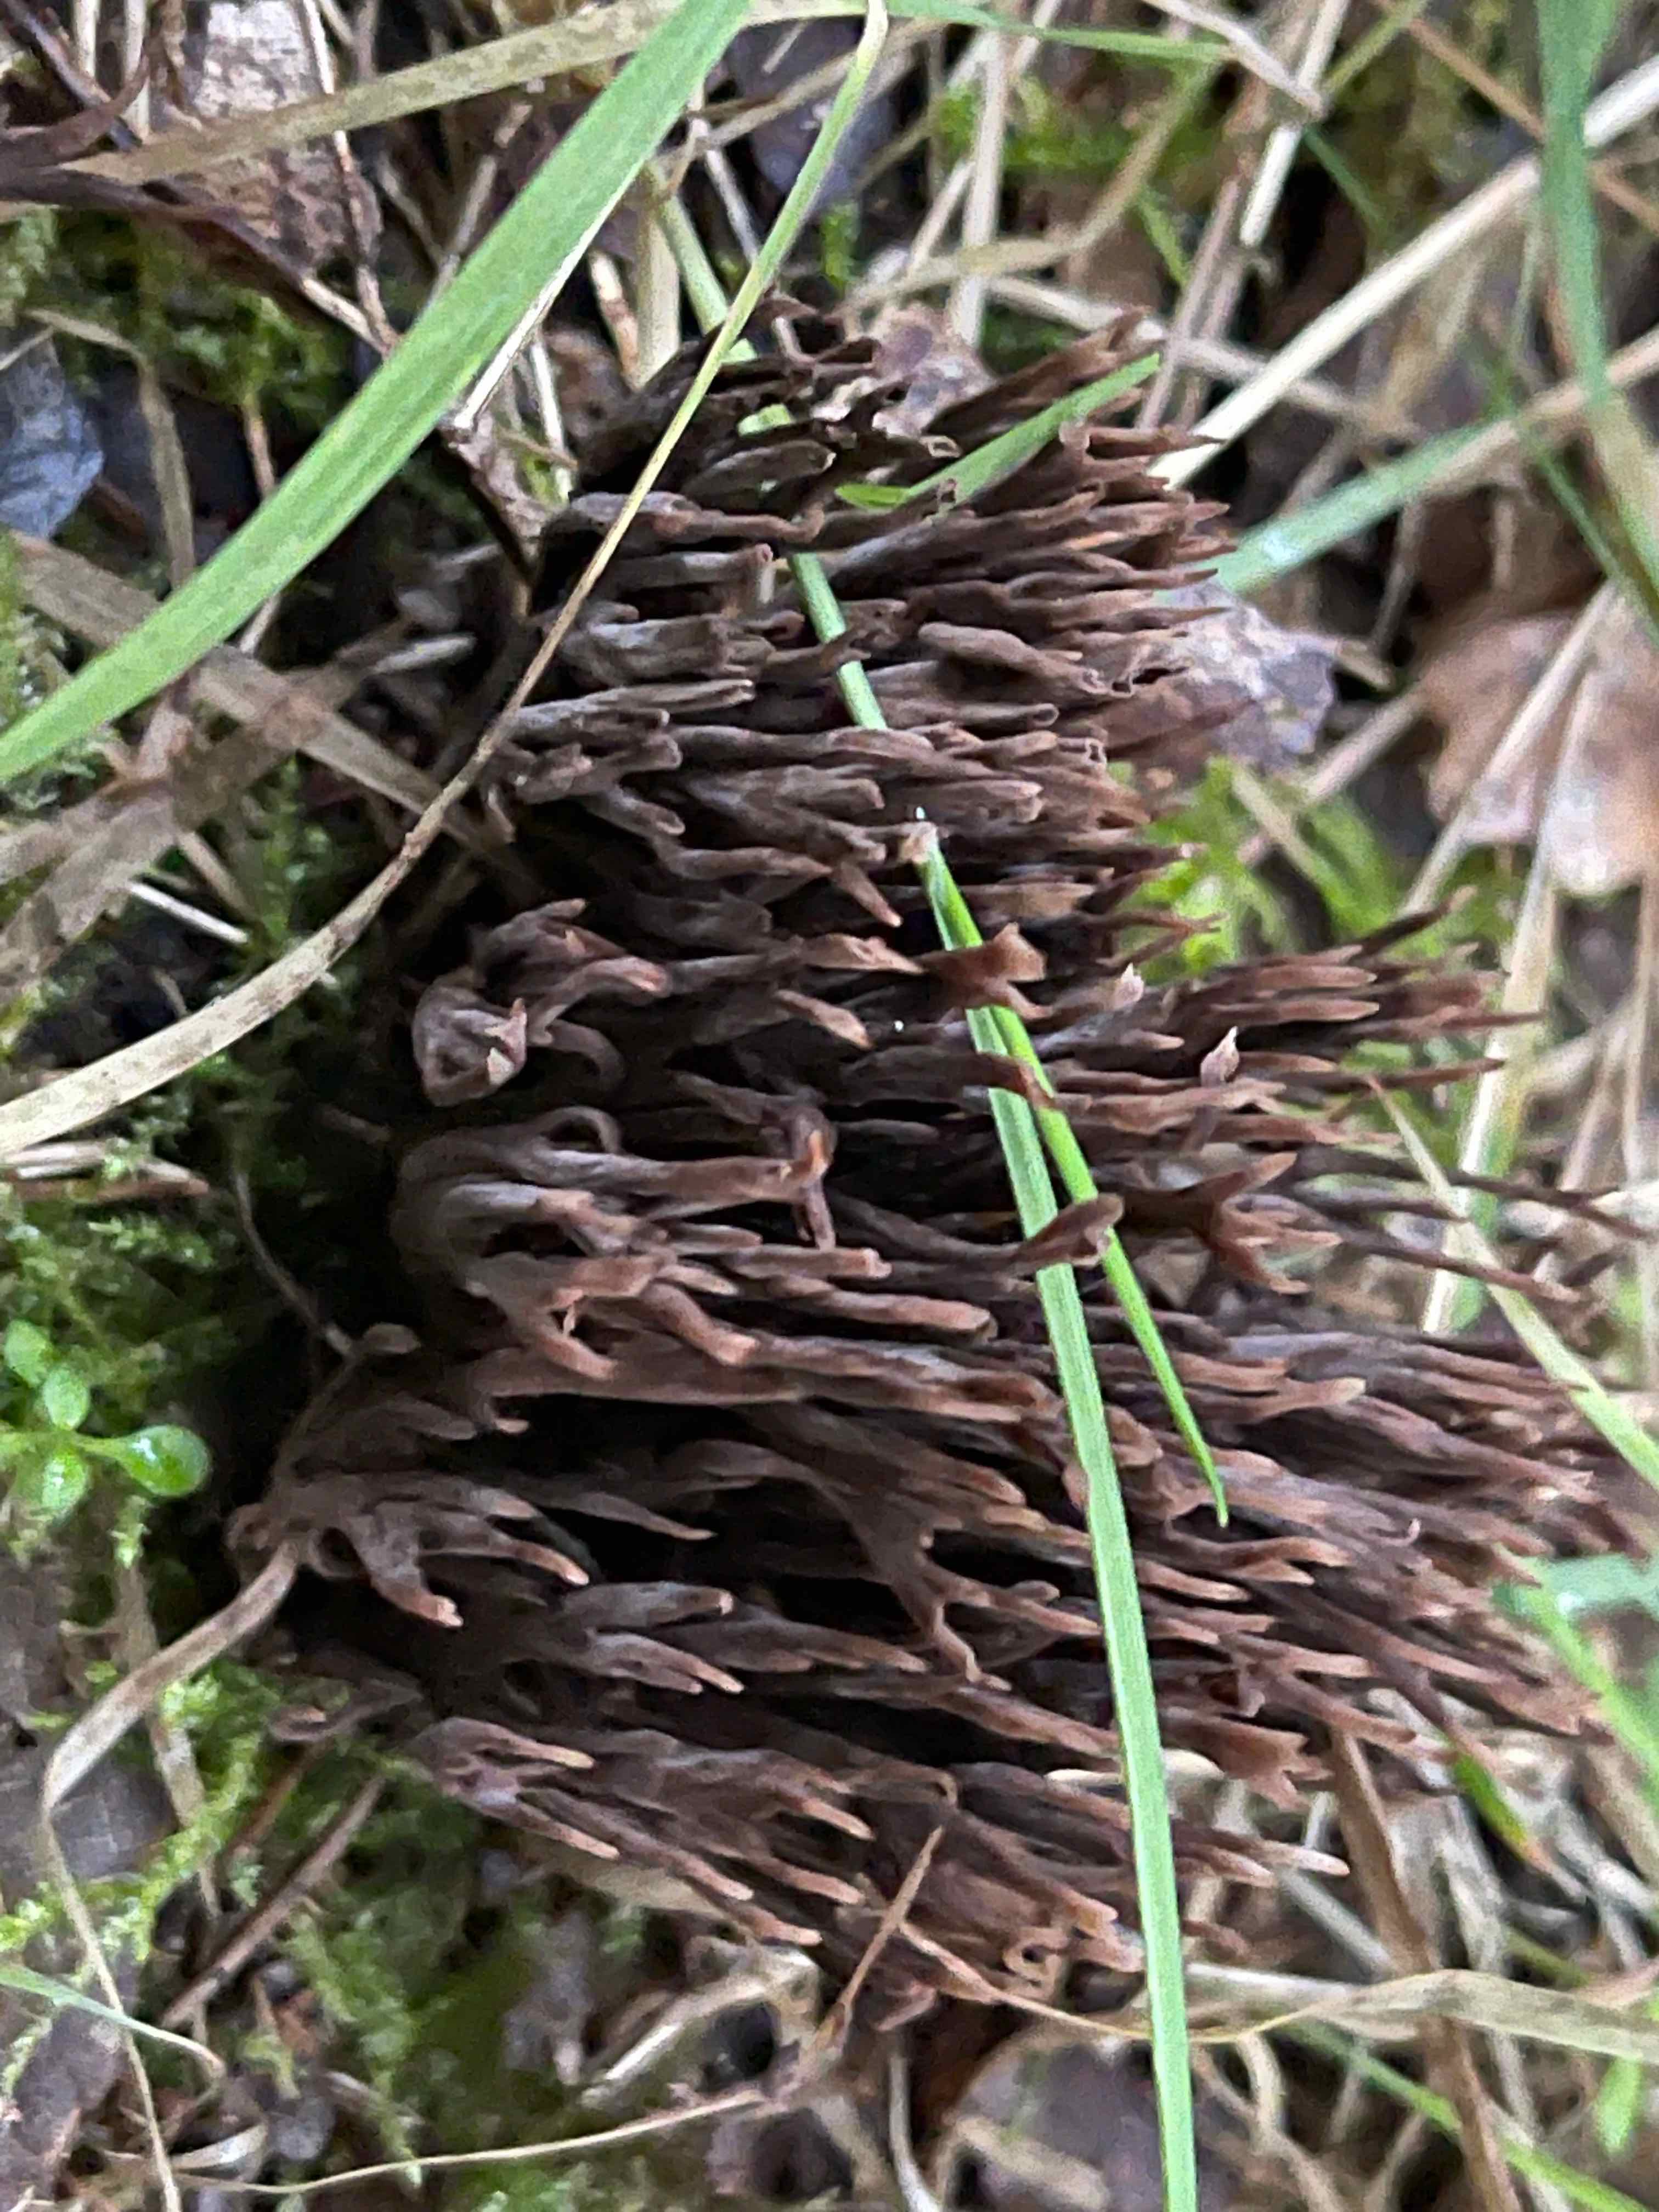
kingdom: Fungi
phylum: Basidiomycota
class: Agaricomycetes
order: Thelephorales
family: Thelephoraceae
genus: Thelephora
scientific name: Thelephora palmata
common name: grenet frynsesvamp
